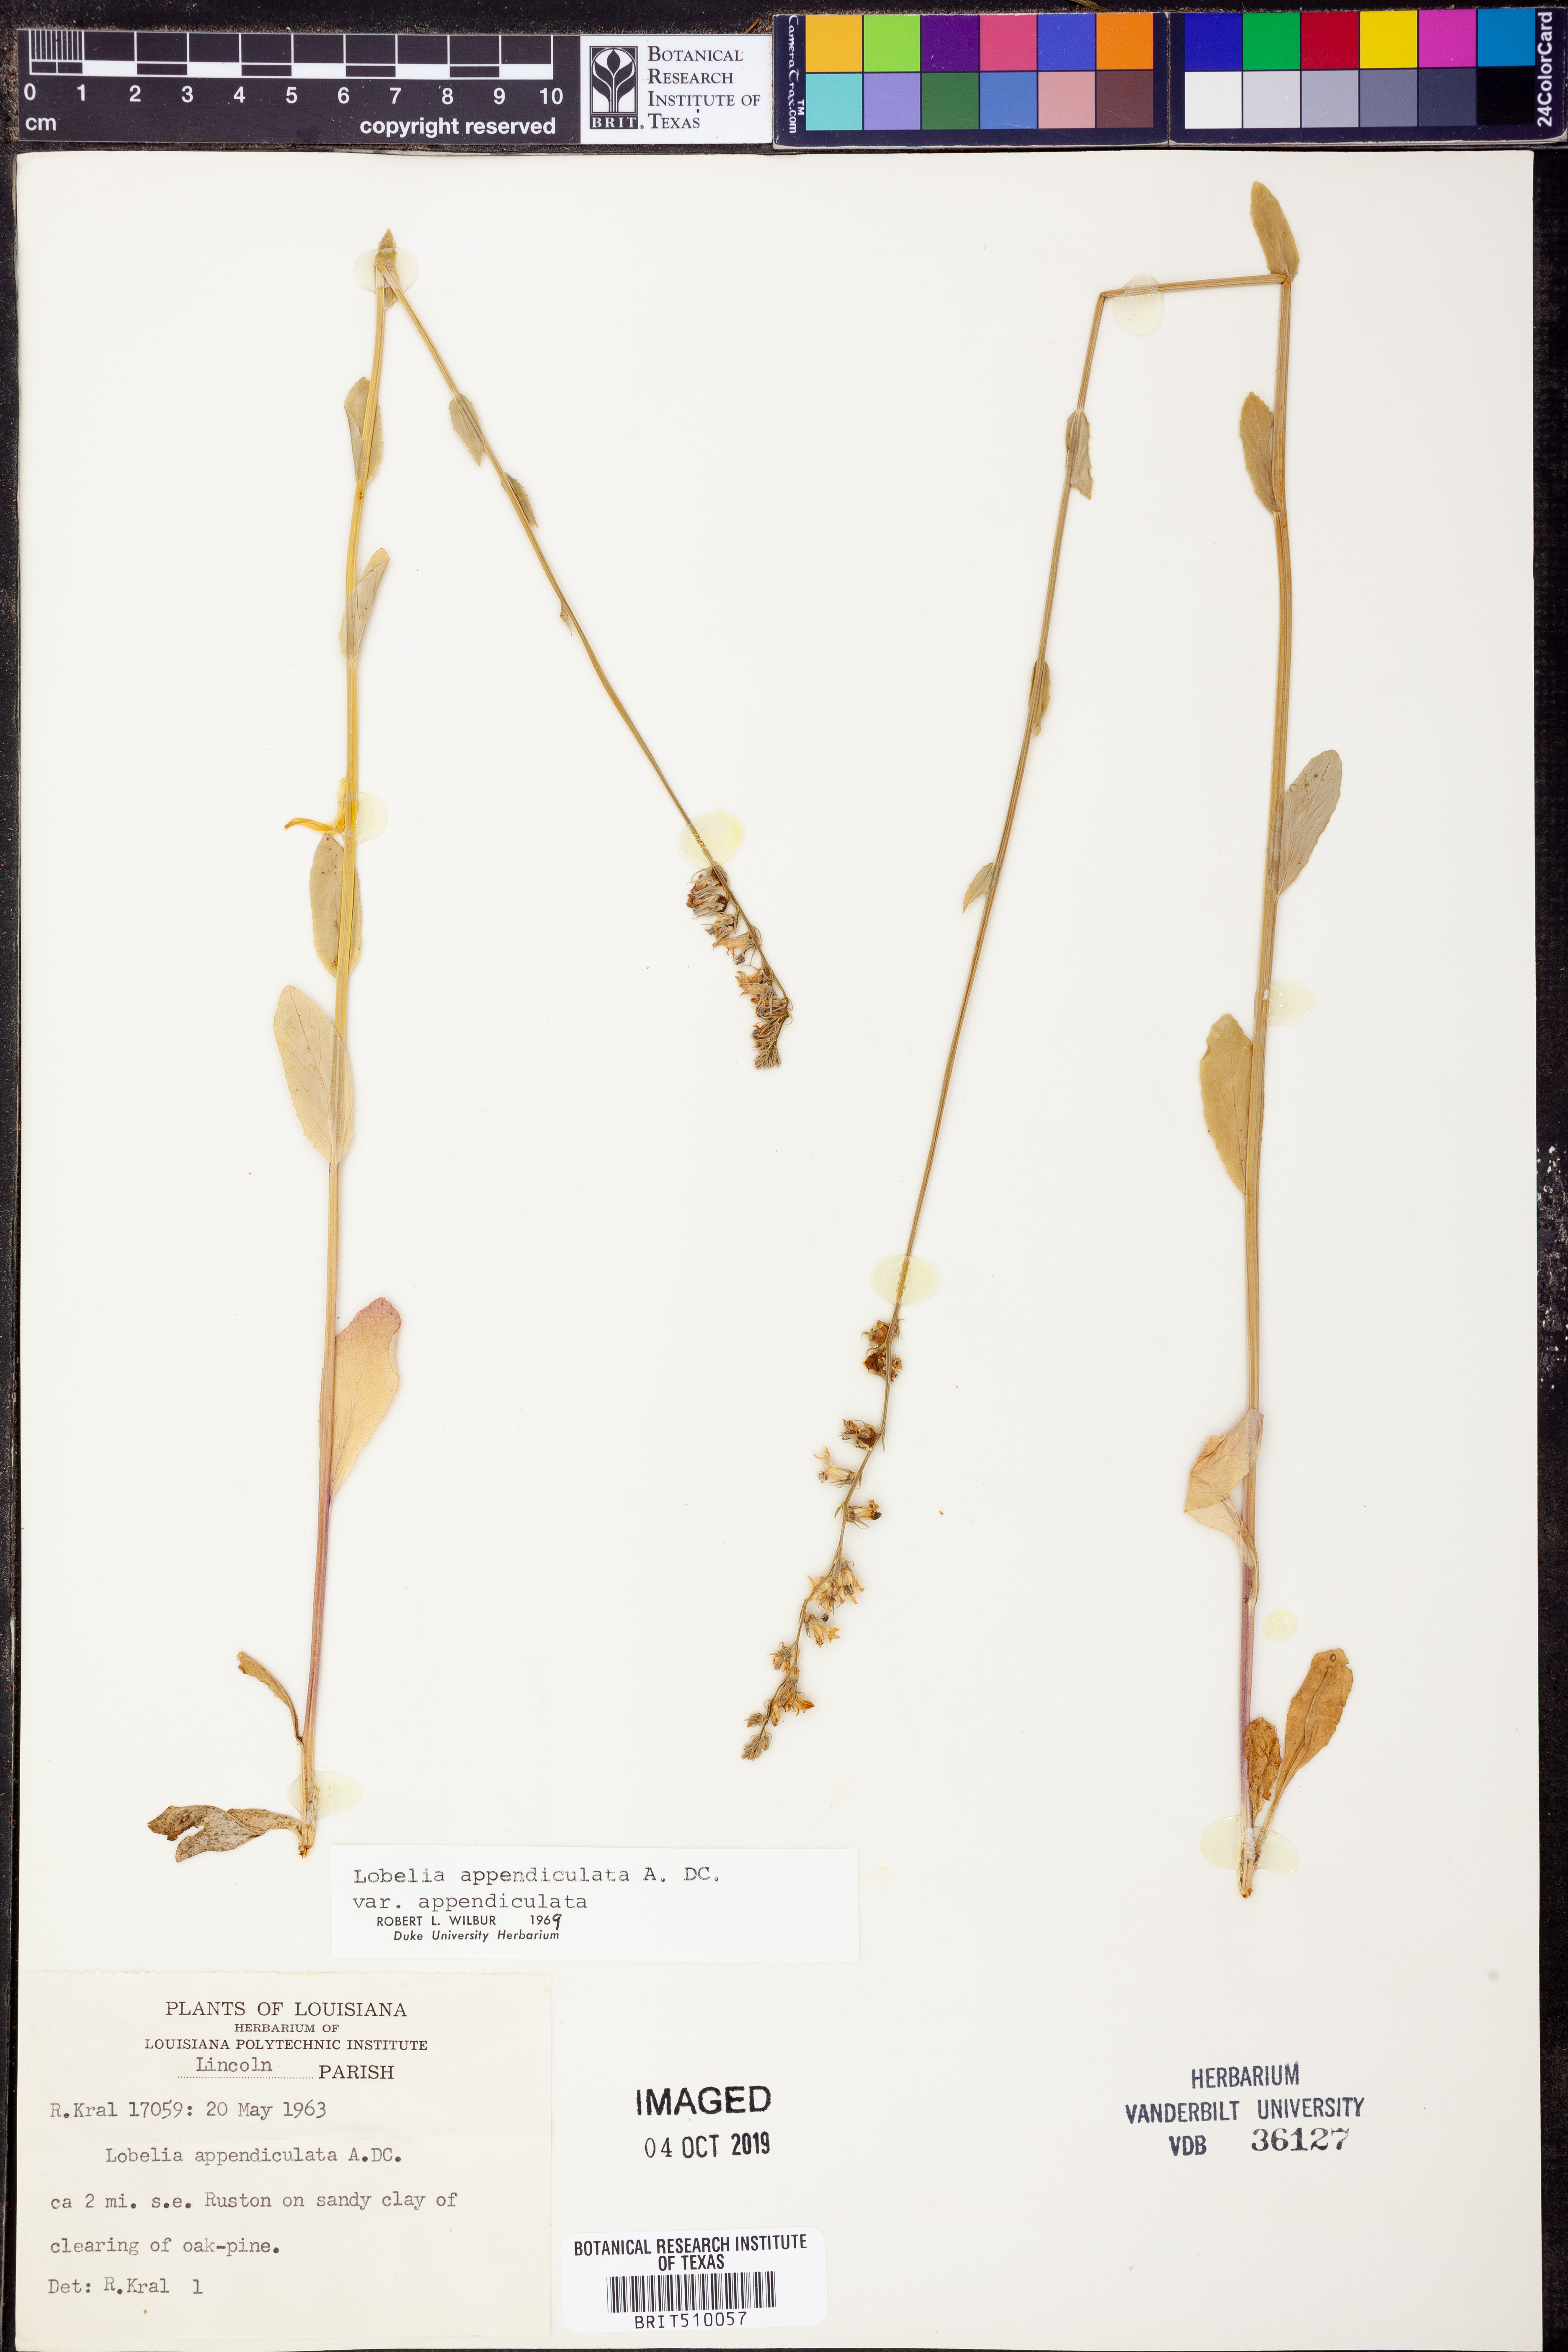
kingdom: Plantae
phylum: Tracheophyta
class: Magnoliopsida
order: Asterales
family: Campanulaceae
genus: Lobelia
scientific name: Lobelia appendiculata
